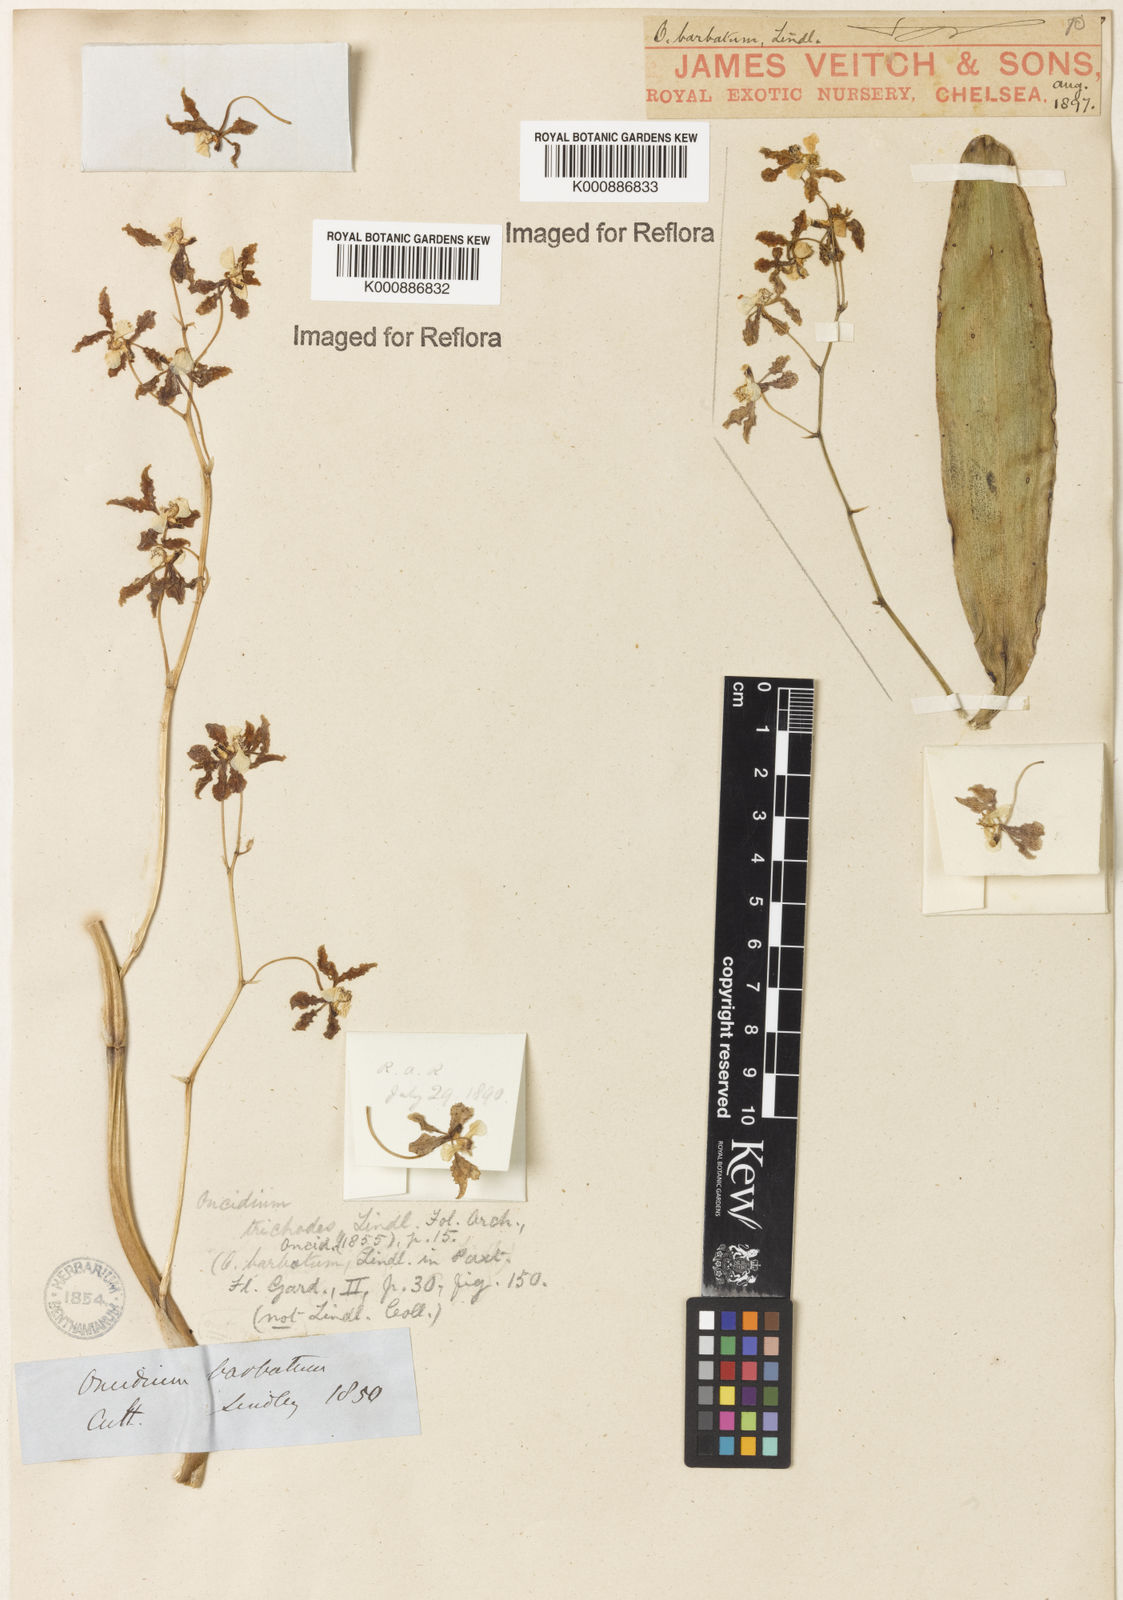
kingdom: Plantae
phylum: Tracheophyta
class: Liliopsida
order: Asparagales
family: Orchidaceae
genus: Gomesa
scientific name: Gomesa barbata
